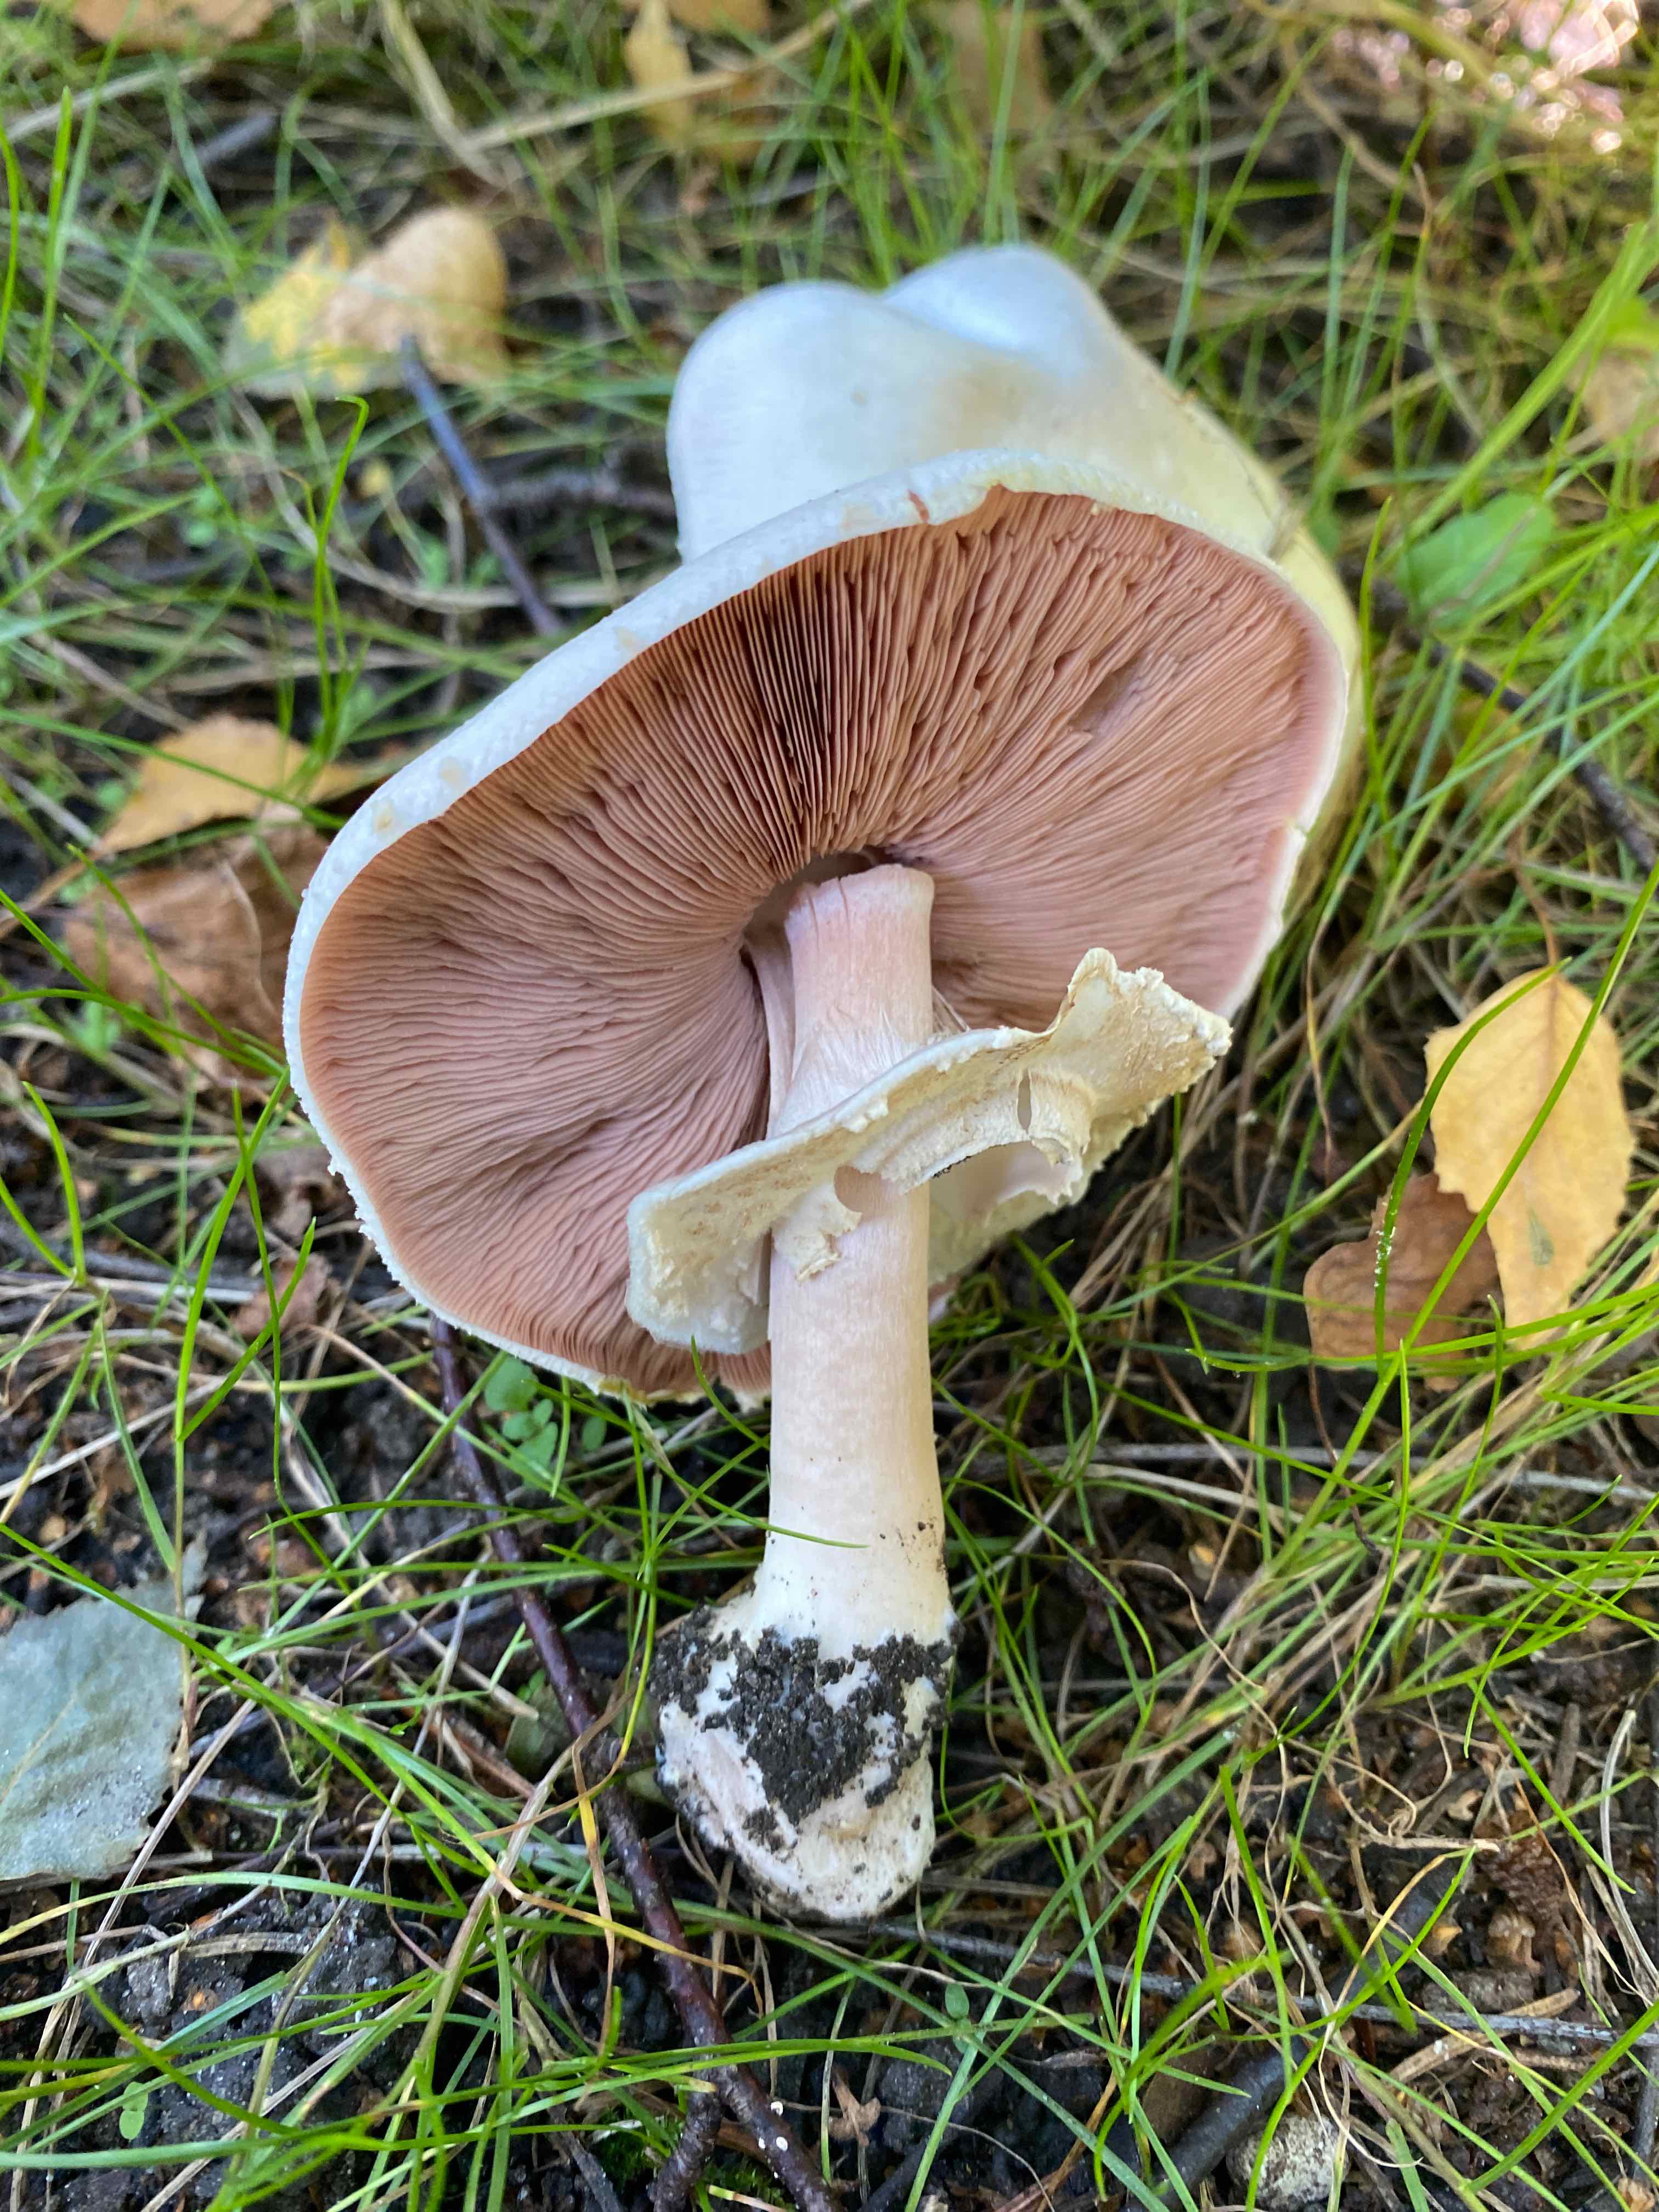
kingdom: Fungi
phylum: Basidiomycota
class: Agaricomycetes
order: Agaricales
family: Agaricaceae
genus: Agaricus
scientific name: Agaricus xanthodermus
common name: karbol-champignon
